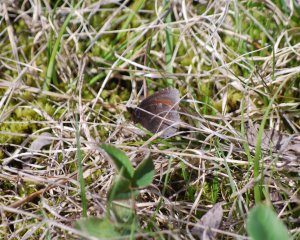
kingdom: Animalia
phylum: Arthropoda
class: Insecta
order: Lepidoptera
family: Nymphalidae
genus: Erebia
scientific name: Erebia discoidalis
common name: Red-disked Alpine
